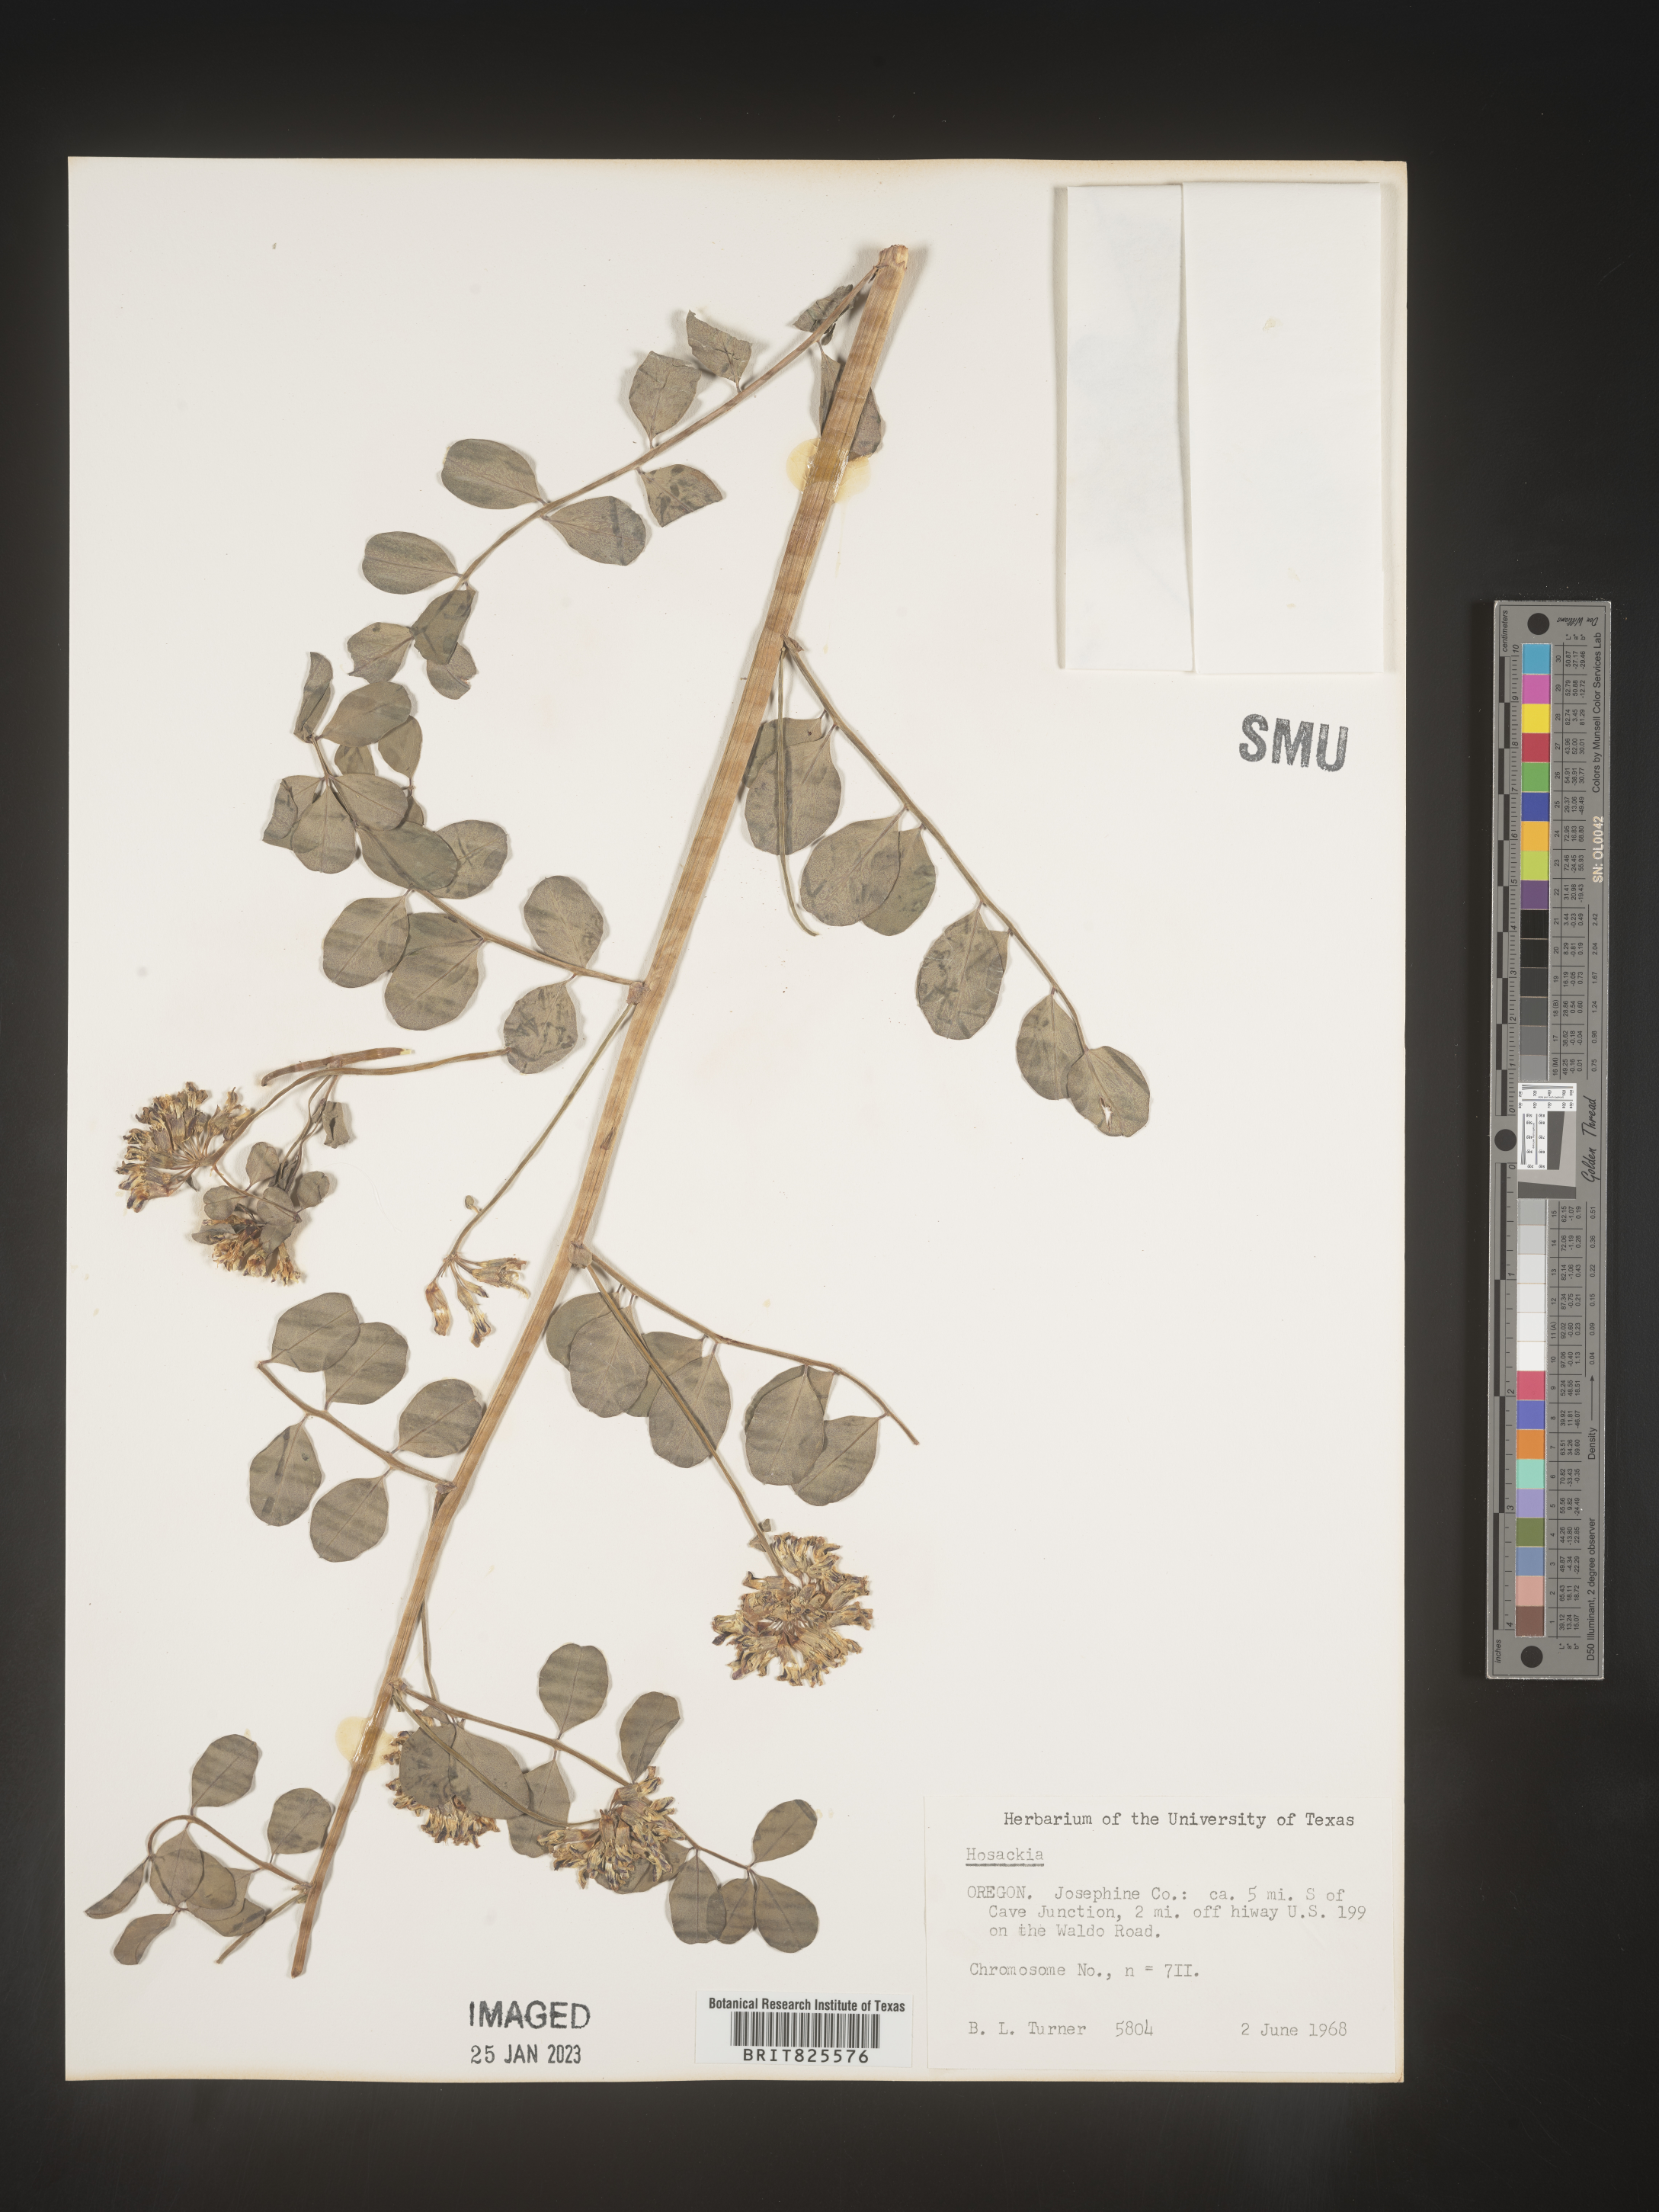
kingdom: Plantae
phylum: Tracheophyta
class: Magnoliopsida
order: Fabales
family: Fabaceae
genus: Lotus
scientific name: Lotus
